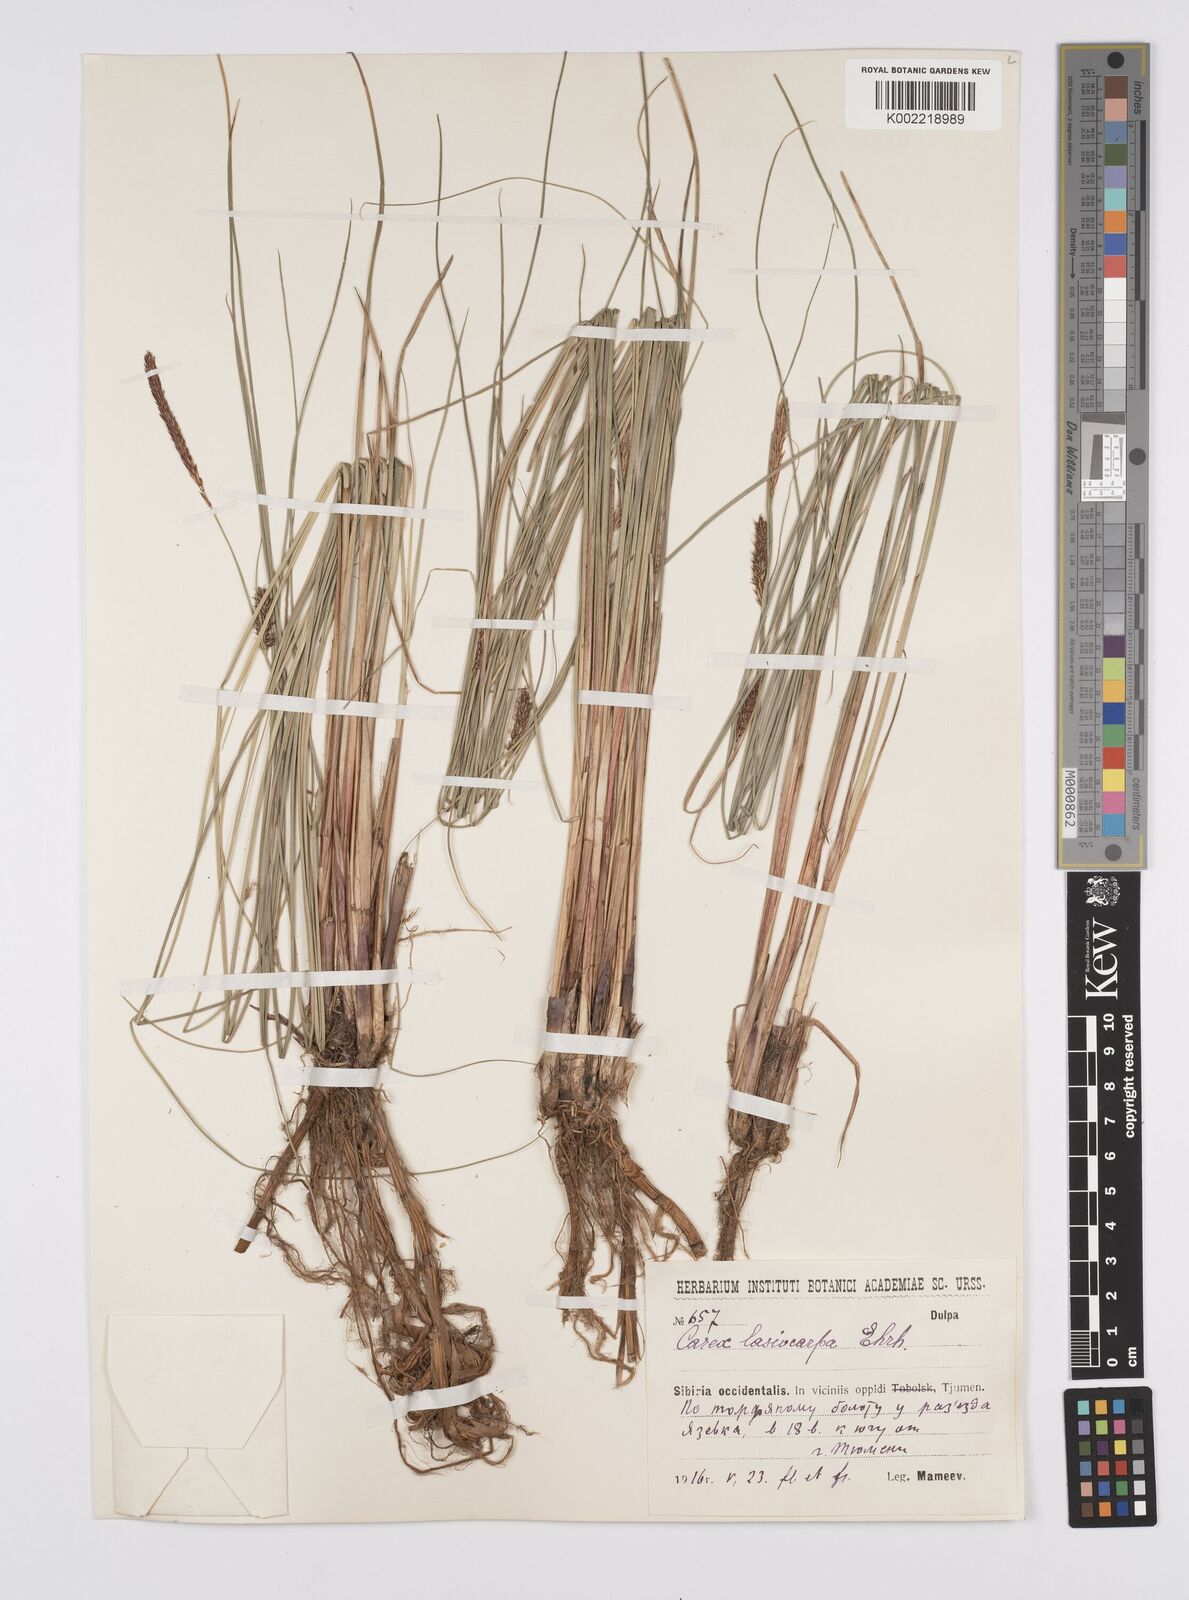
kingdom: Plantae
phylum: Tracheophyta
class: Liliopsida
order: Poales
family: Cyperaceae
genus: Carex
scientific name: Carex lasiocarpa
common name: Slender sedge
